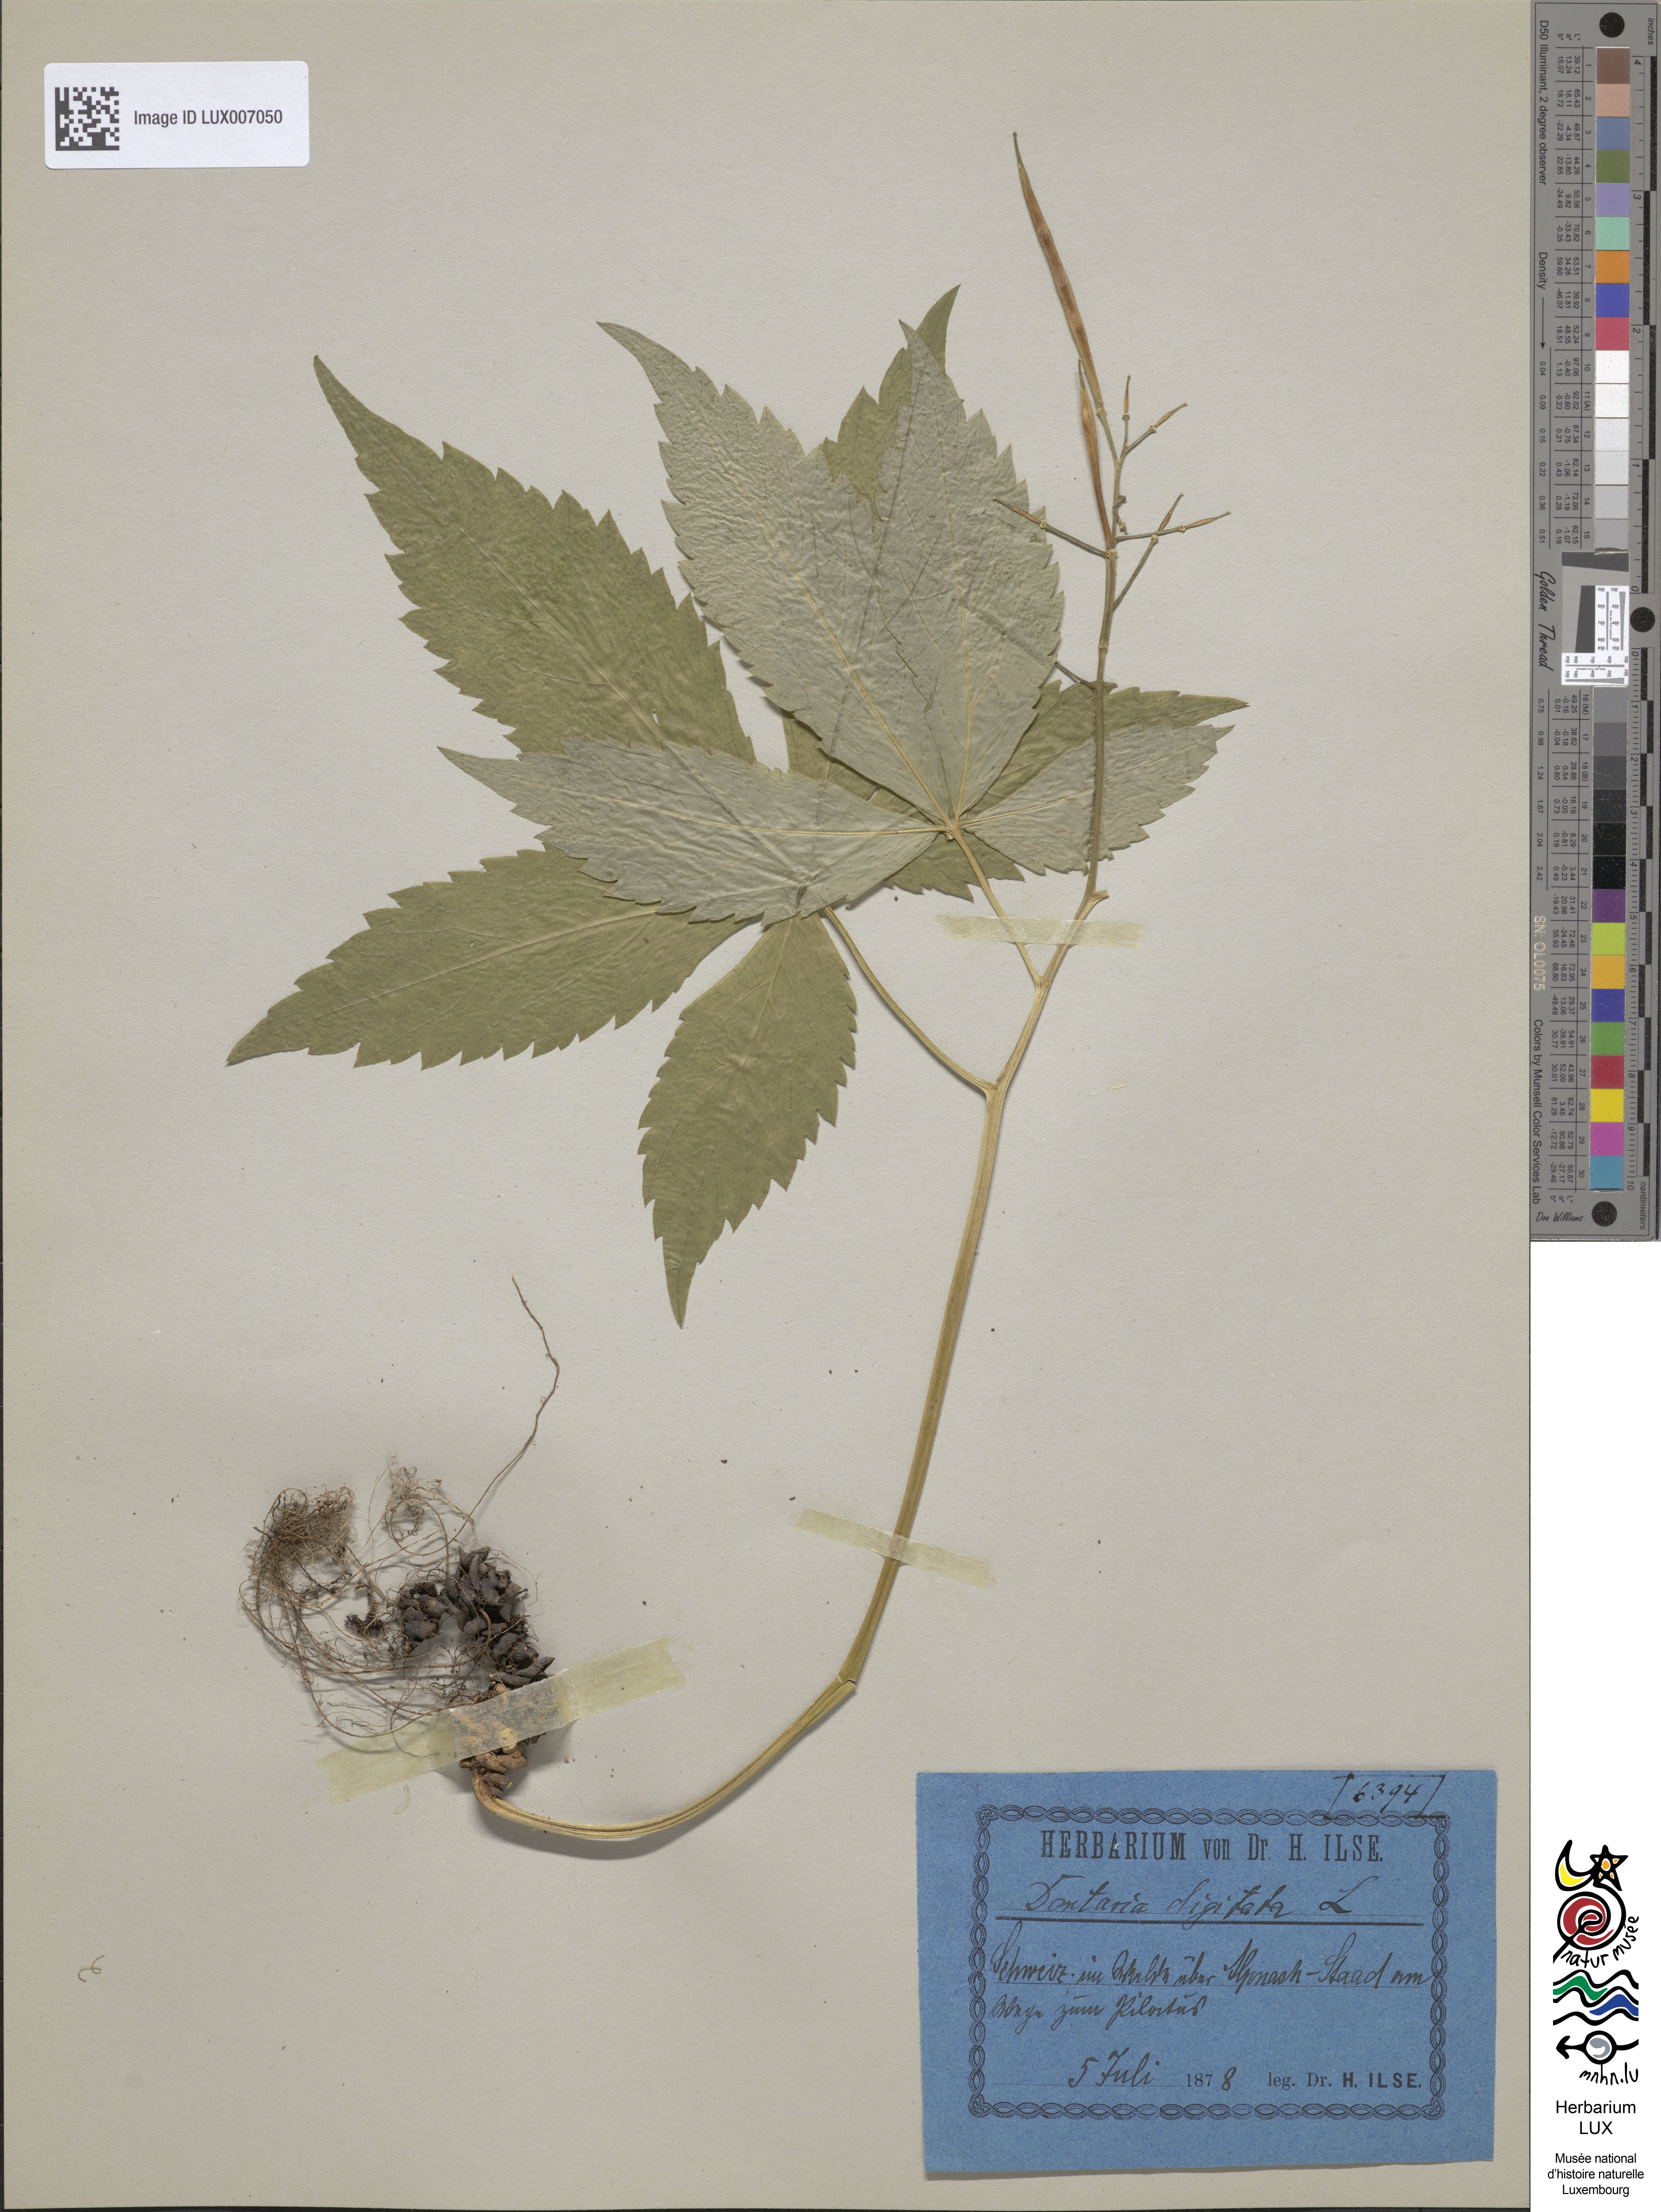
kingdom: Plantae
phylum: Tracheophyta
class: Magnoliopsida
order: Brassicales
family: Brassicaceae
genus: Cardamine
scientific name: Cardamine pentaphyllos
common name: Five-leaflet bitter-cress
